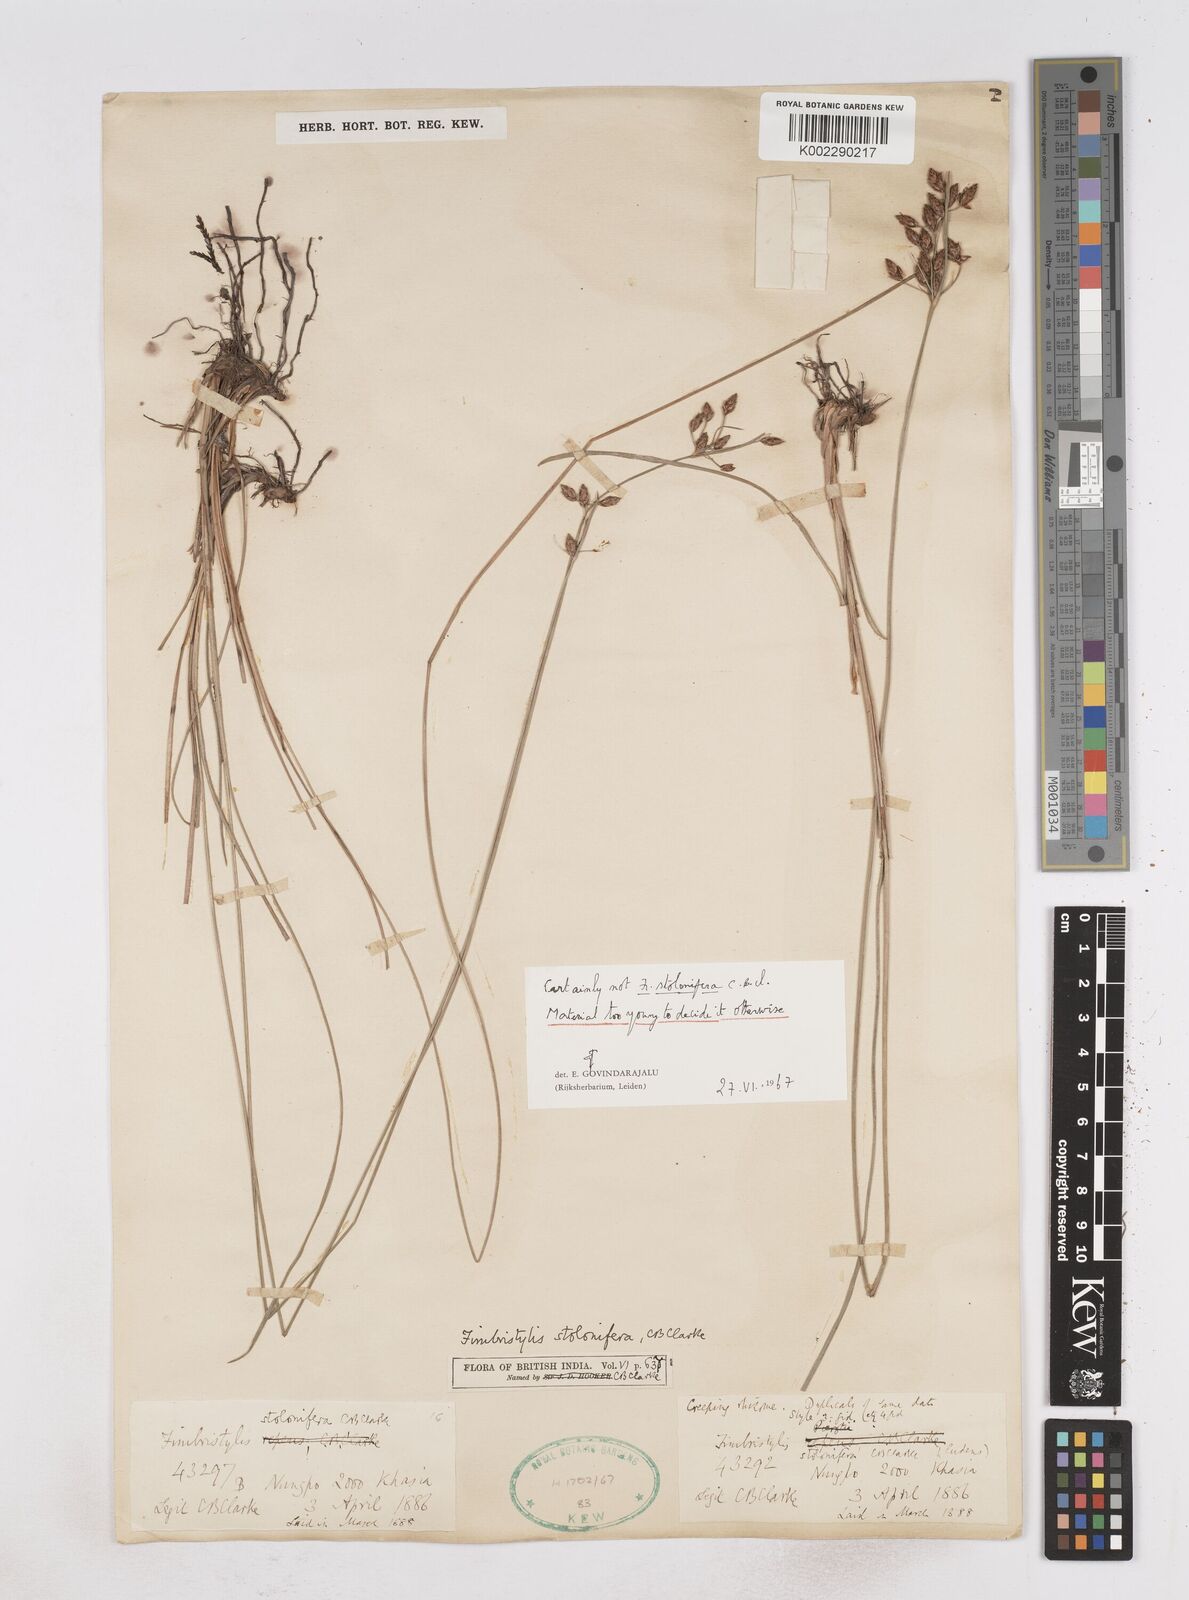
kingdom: Plantae
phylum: Tracheophyta
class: Liliopsida
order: Poales
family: Cyperaceae
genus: Fimbristylis
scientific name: Fimbristylis
